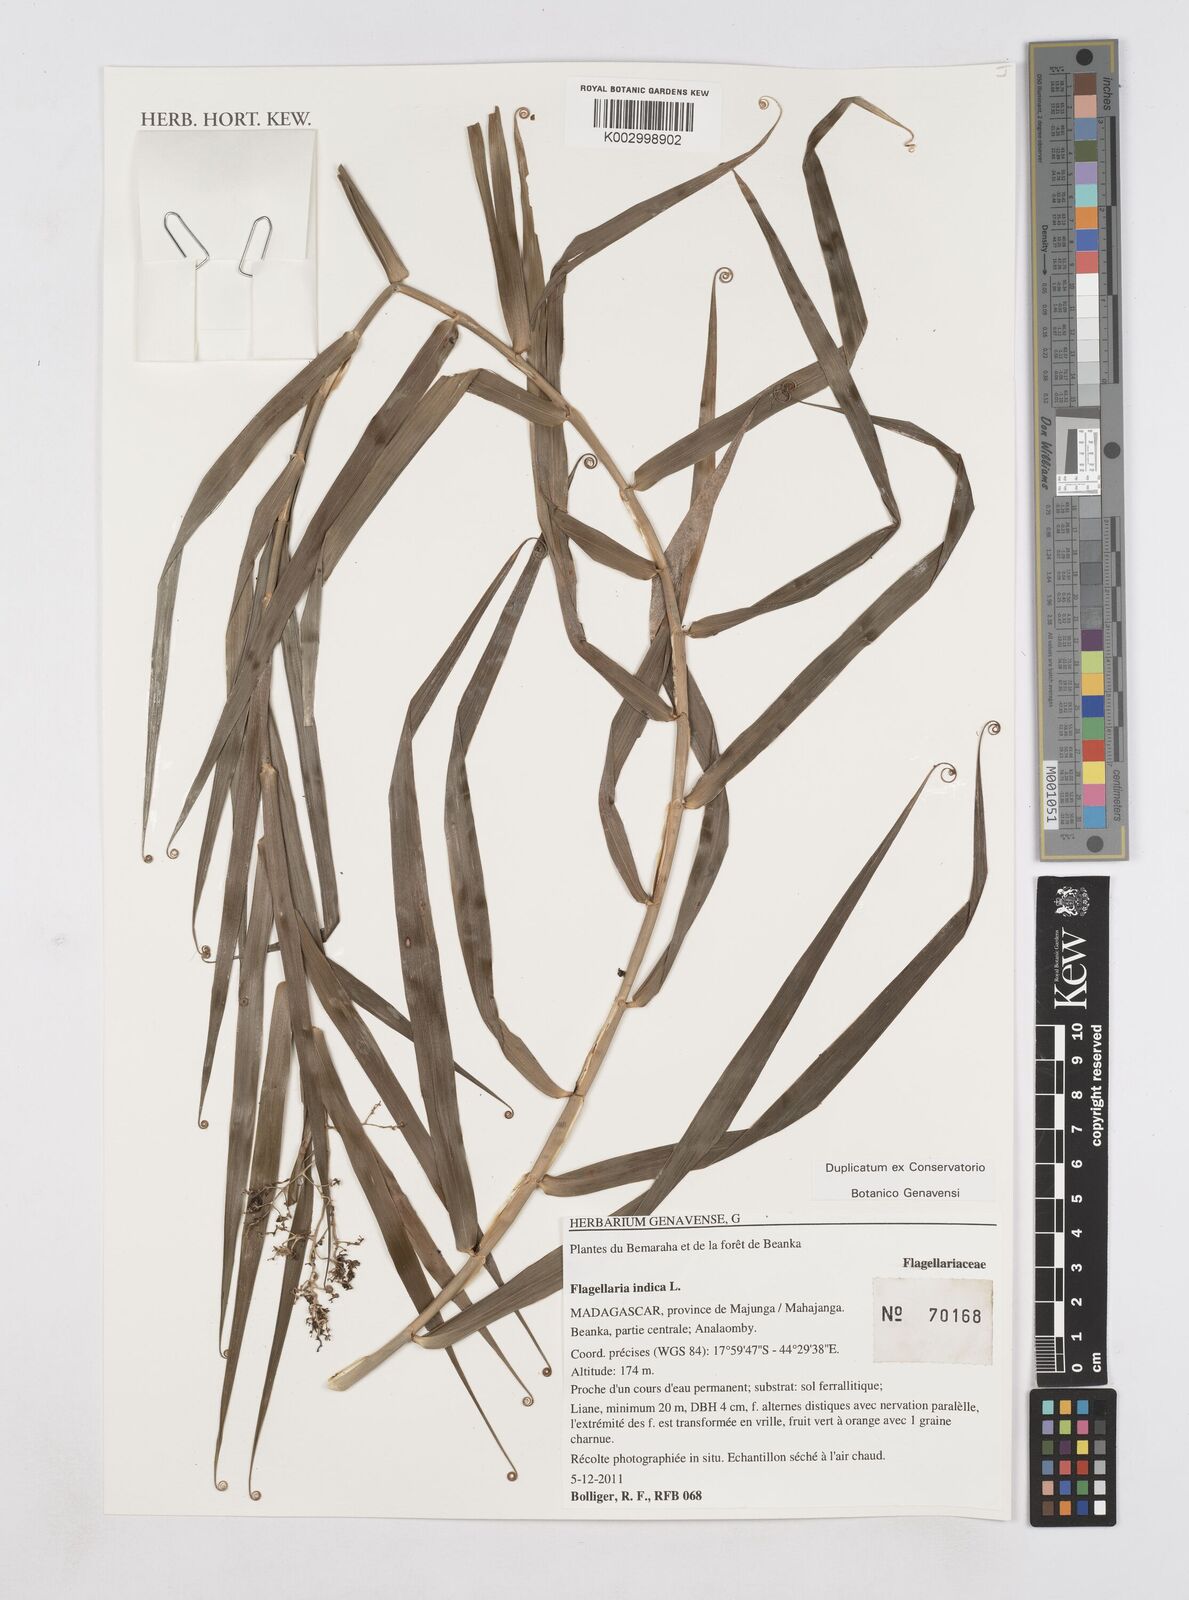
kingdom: Plantae
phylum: Tracheophyta
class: Liliopsida
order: Poales
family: Flagellariaceae
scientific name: Flagellariaceae
